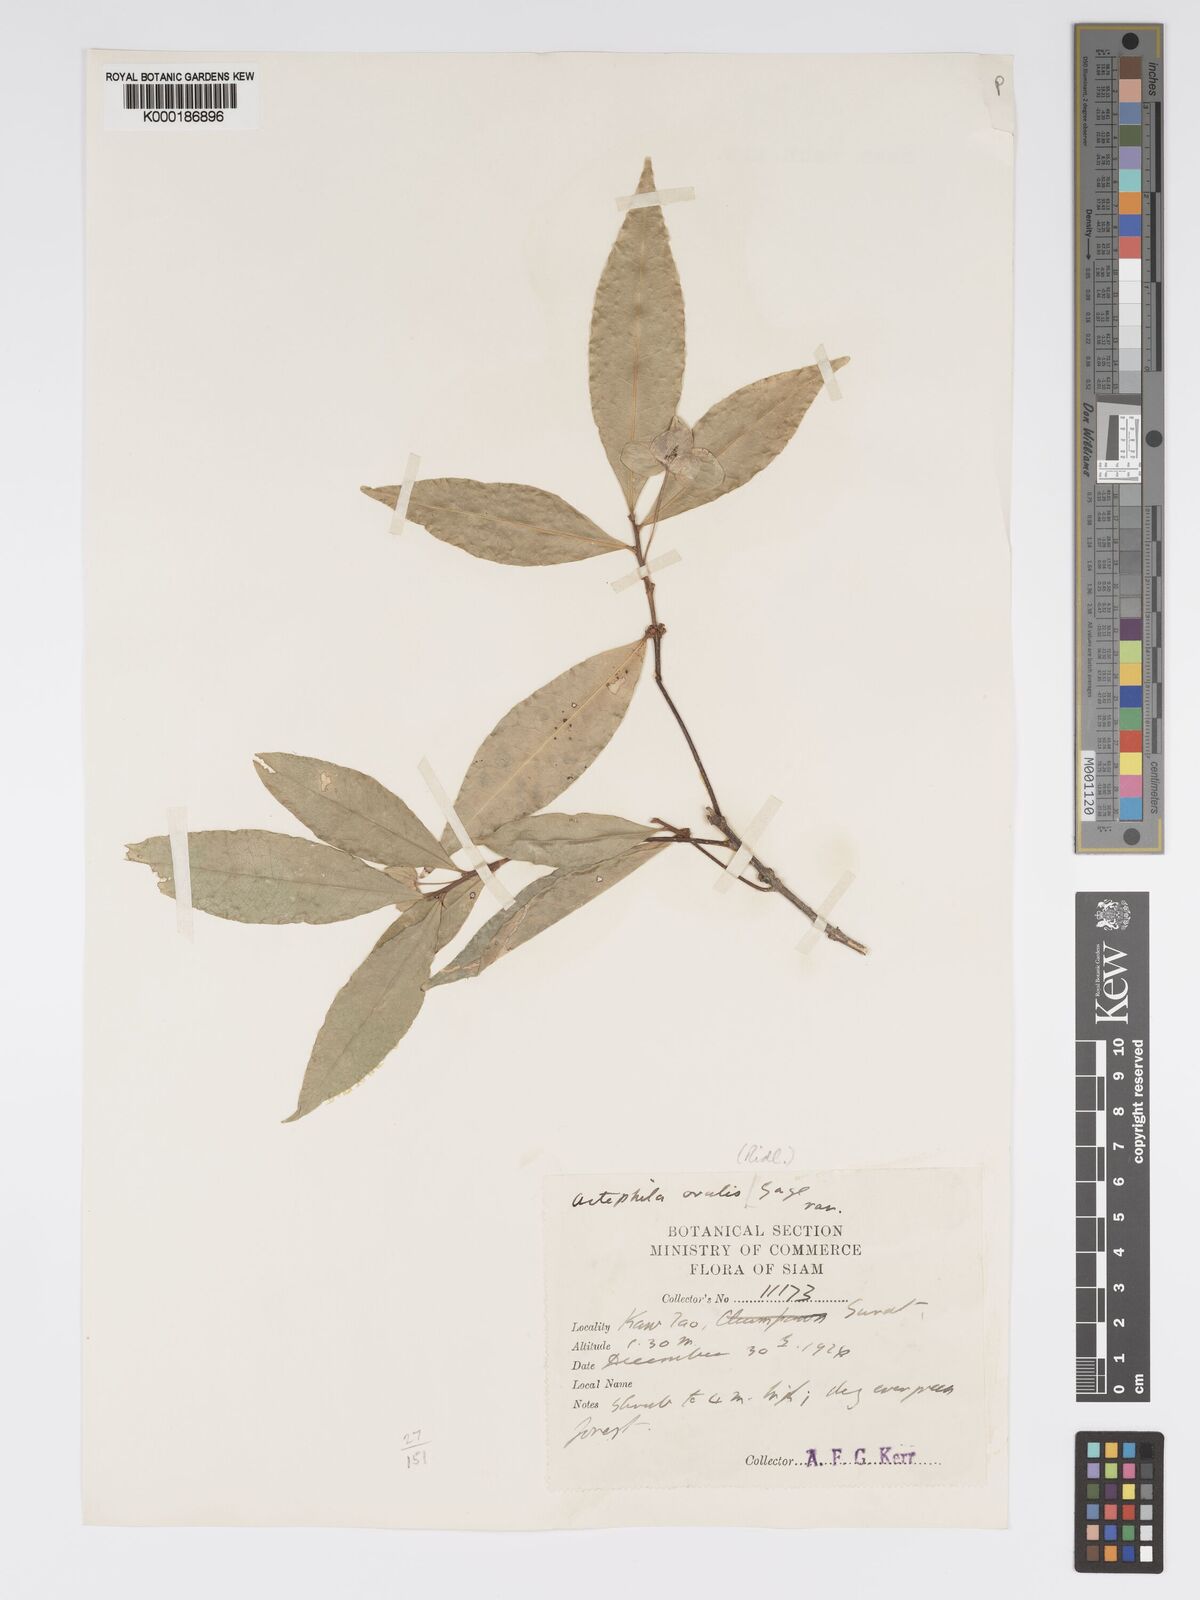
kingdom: Plantae
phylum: Tracheophyta
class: Magnoliopsida
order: Malpighiales
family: Phyllanthaceae
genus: Actephila
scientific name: Actephila ovalis
